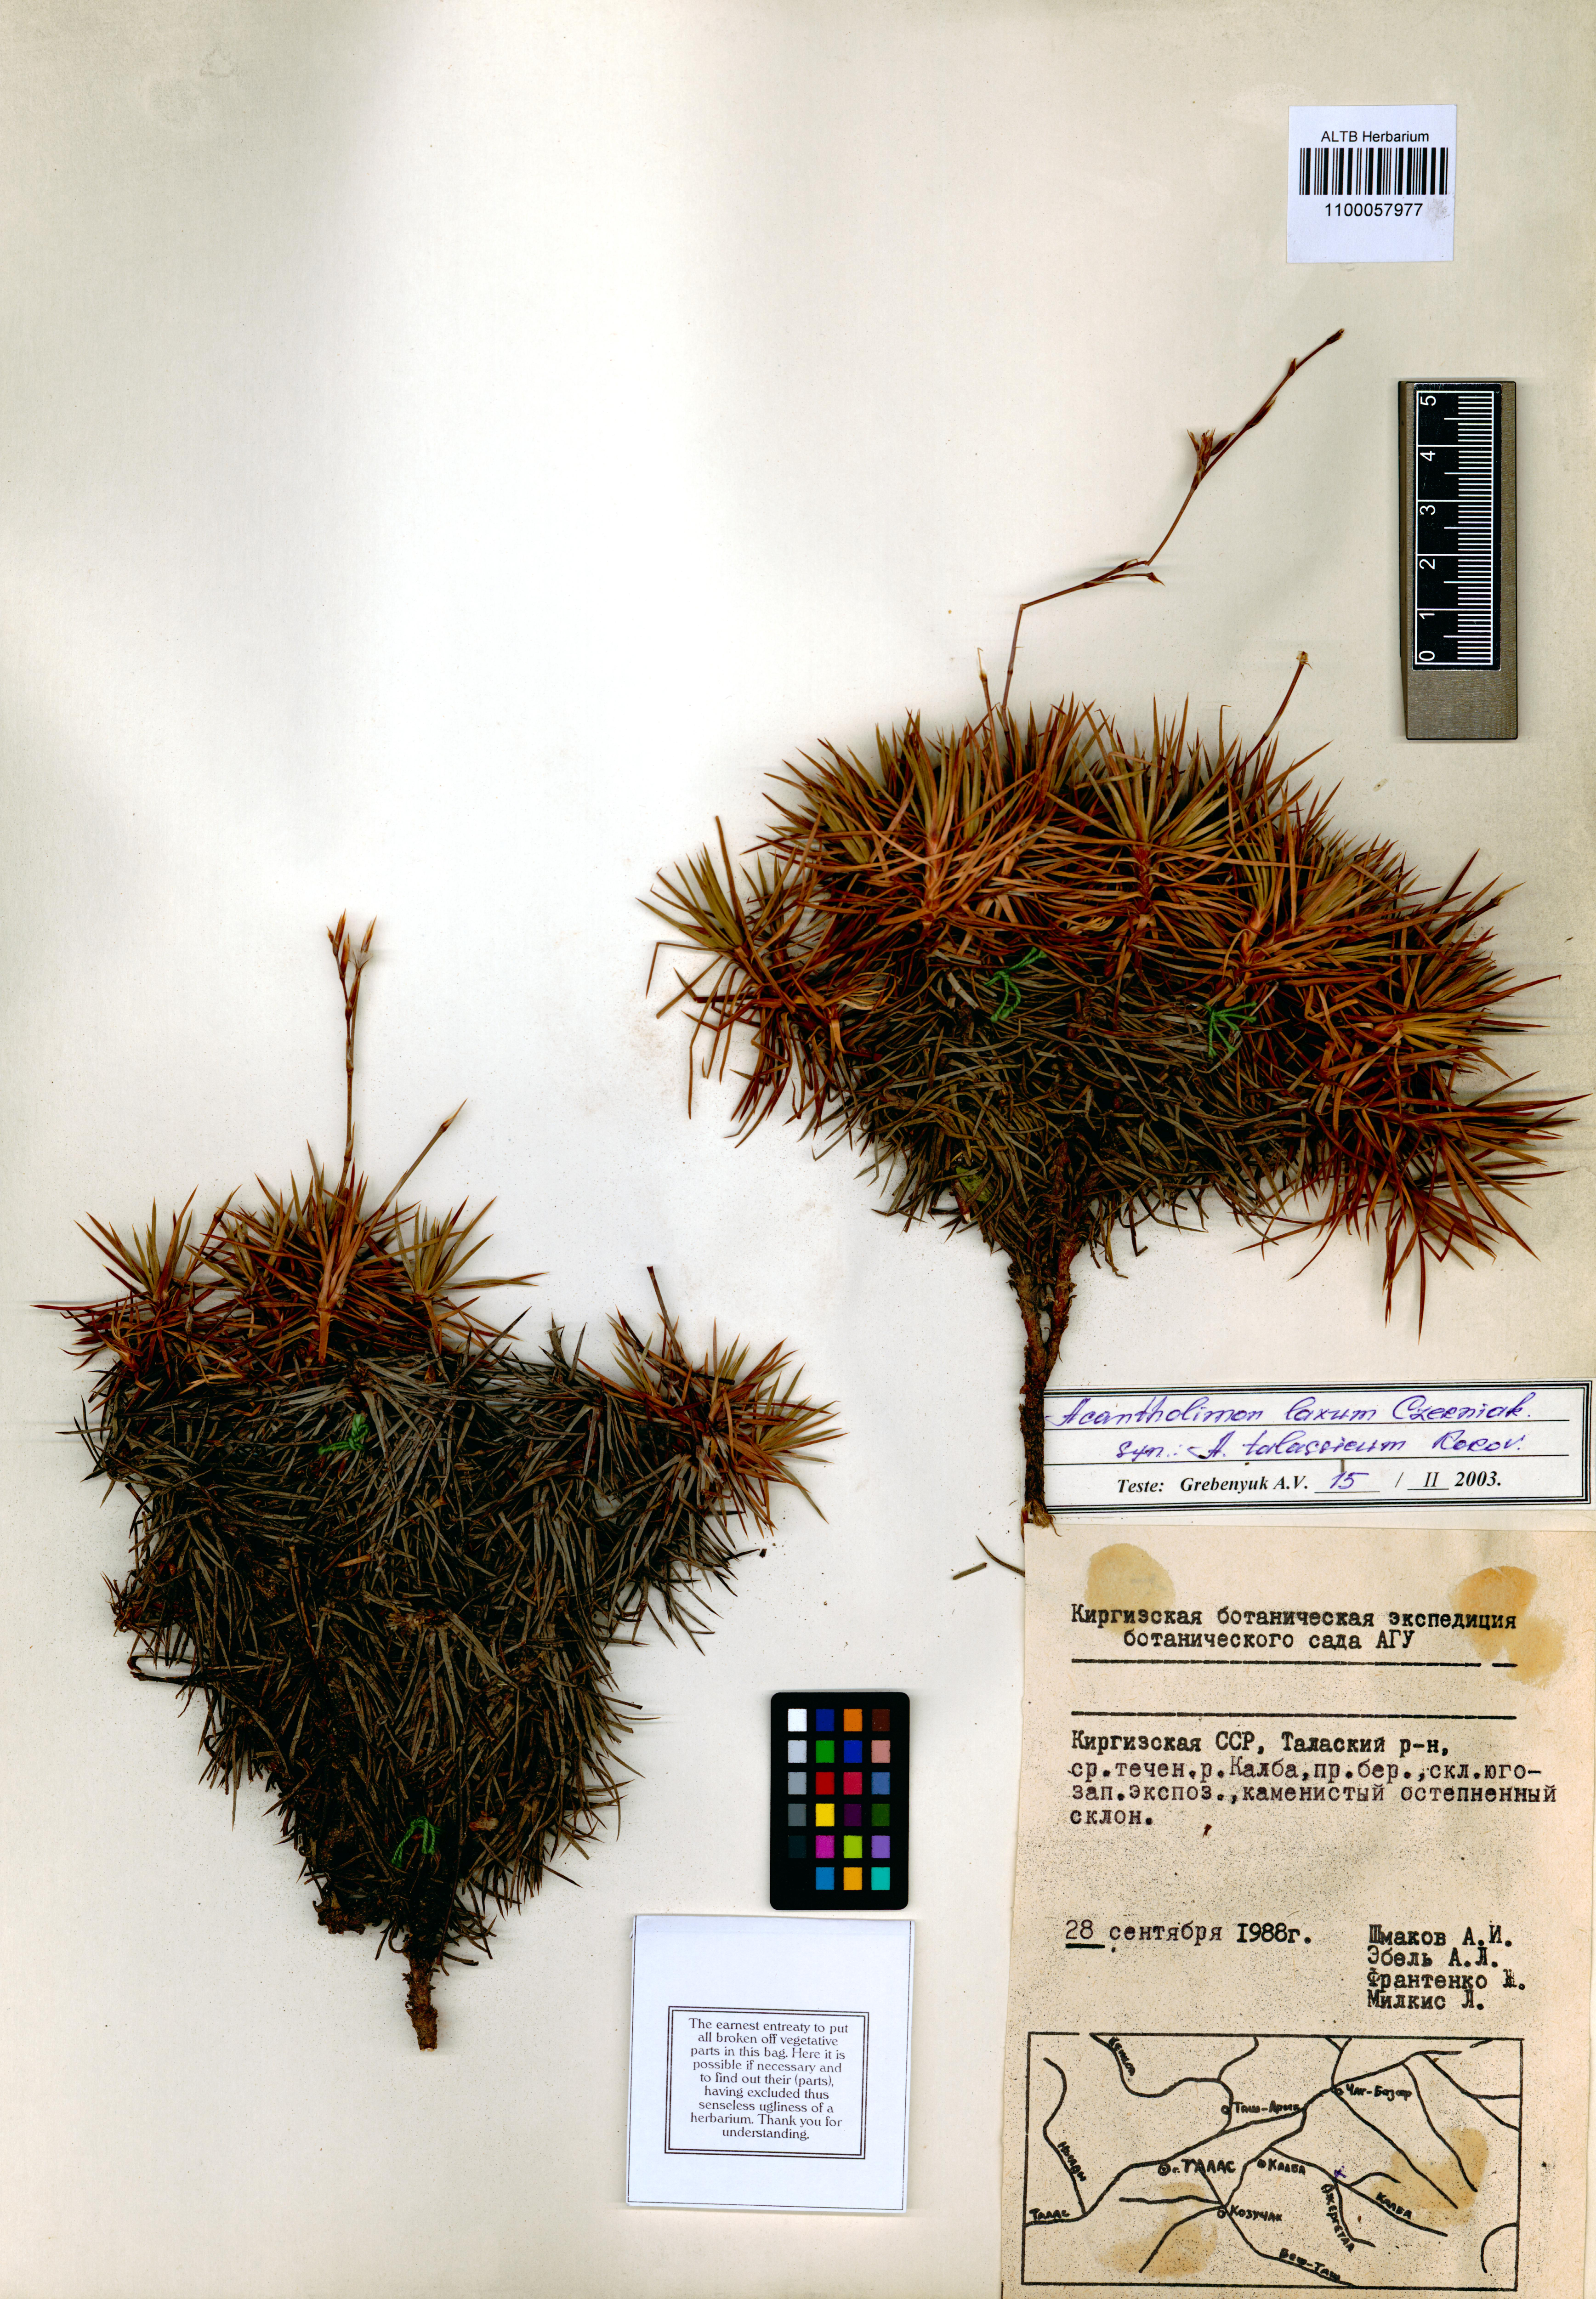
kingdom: Plantae
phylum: Tracheophyta
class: Magnoliopsida
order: Caryophyllales
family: Plumbaginaceae
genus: Acantholimon
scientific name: Acantholimon laxum
